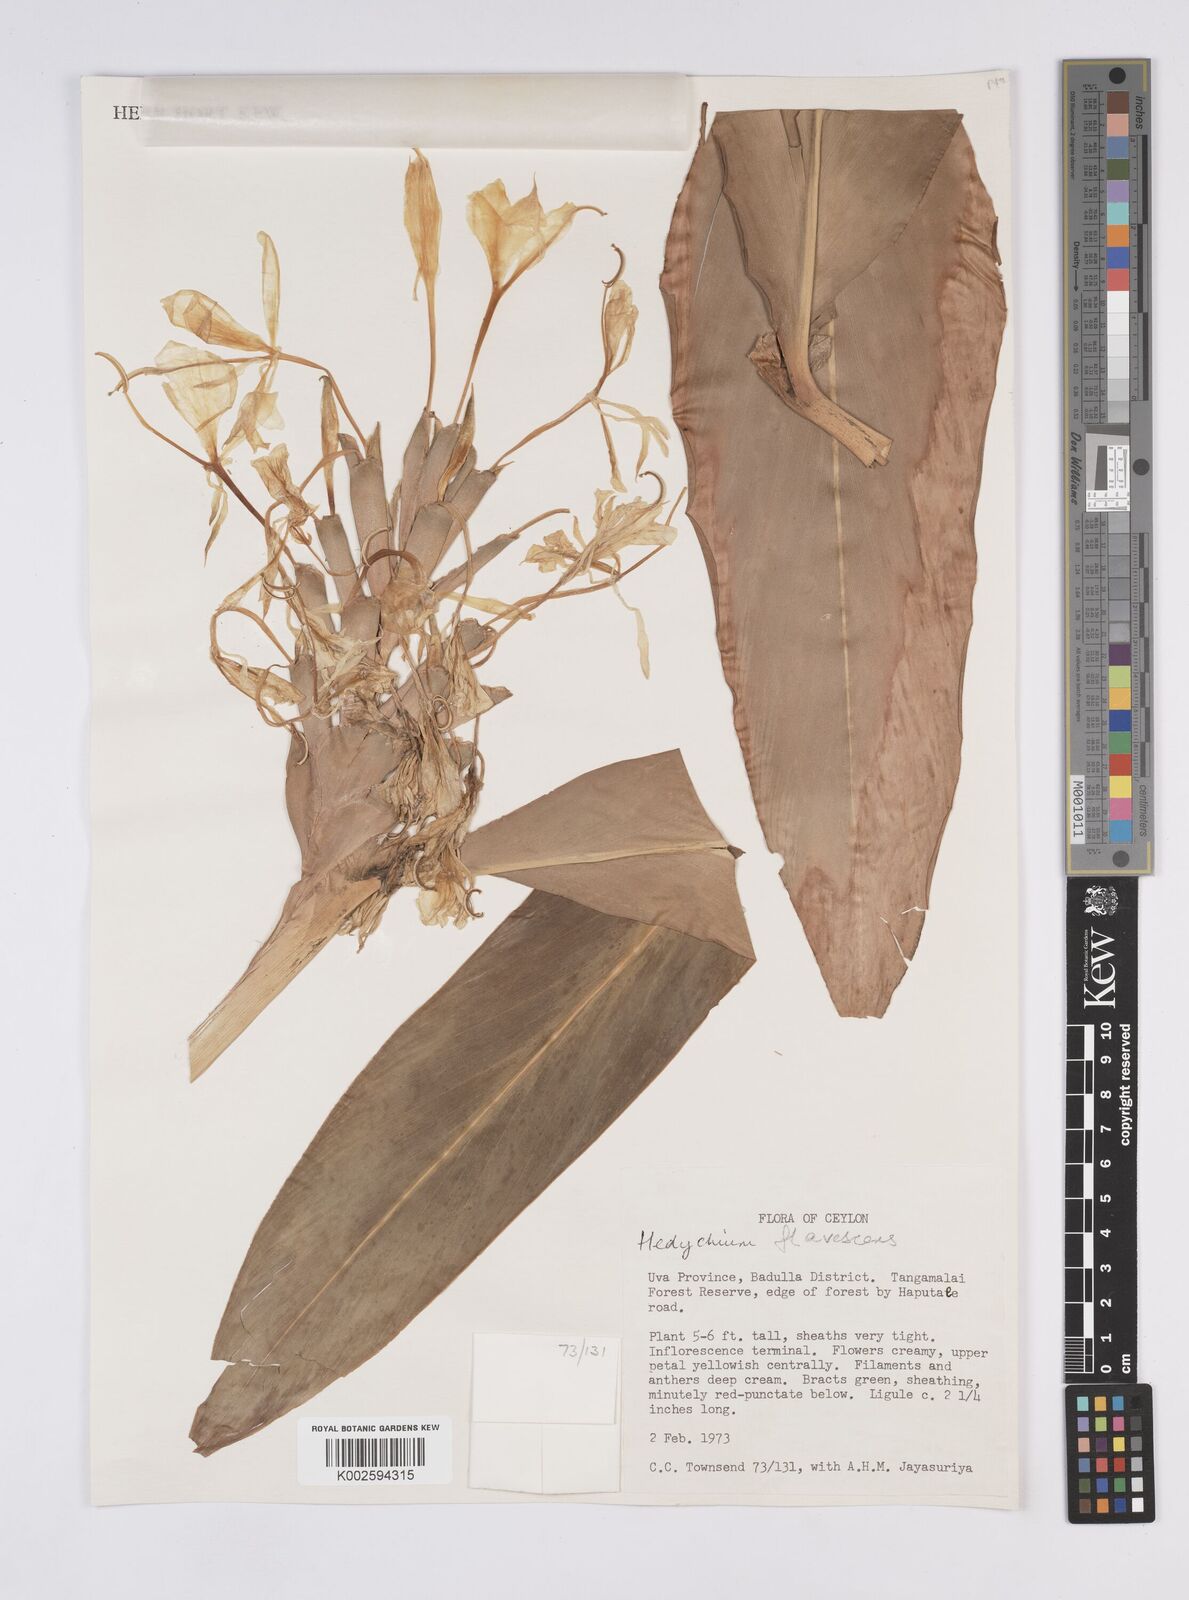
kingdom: Plantae
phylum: Tracheophyta
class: Liliopsida
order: Zingiberales
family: Zingiberaceae
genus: Hedychium
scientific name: Hedychium flavescens
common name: Yellow ginger
